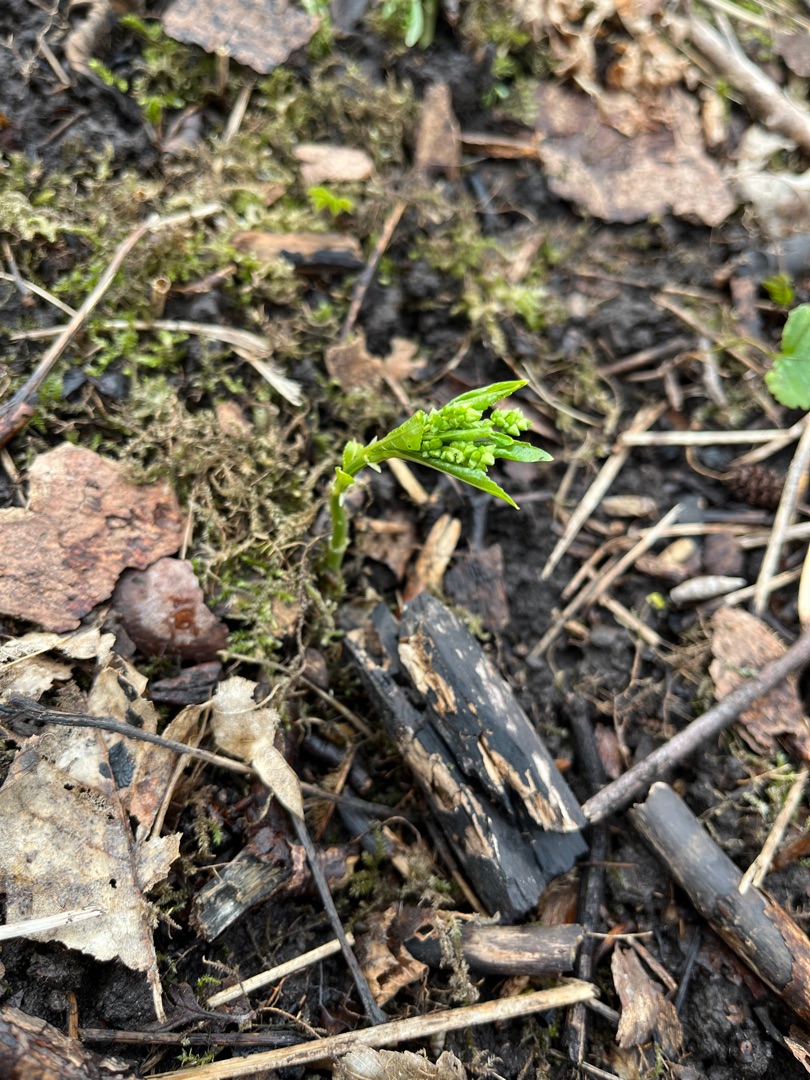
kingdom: Plantae
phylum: Tracheophyta
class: Magnoliopsida
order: Malpighiales
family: Euphorbiaceae
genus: Mercurialis
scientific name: Mercurialis perennis
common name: Almindelig bingelurt
